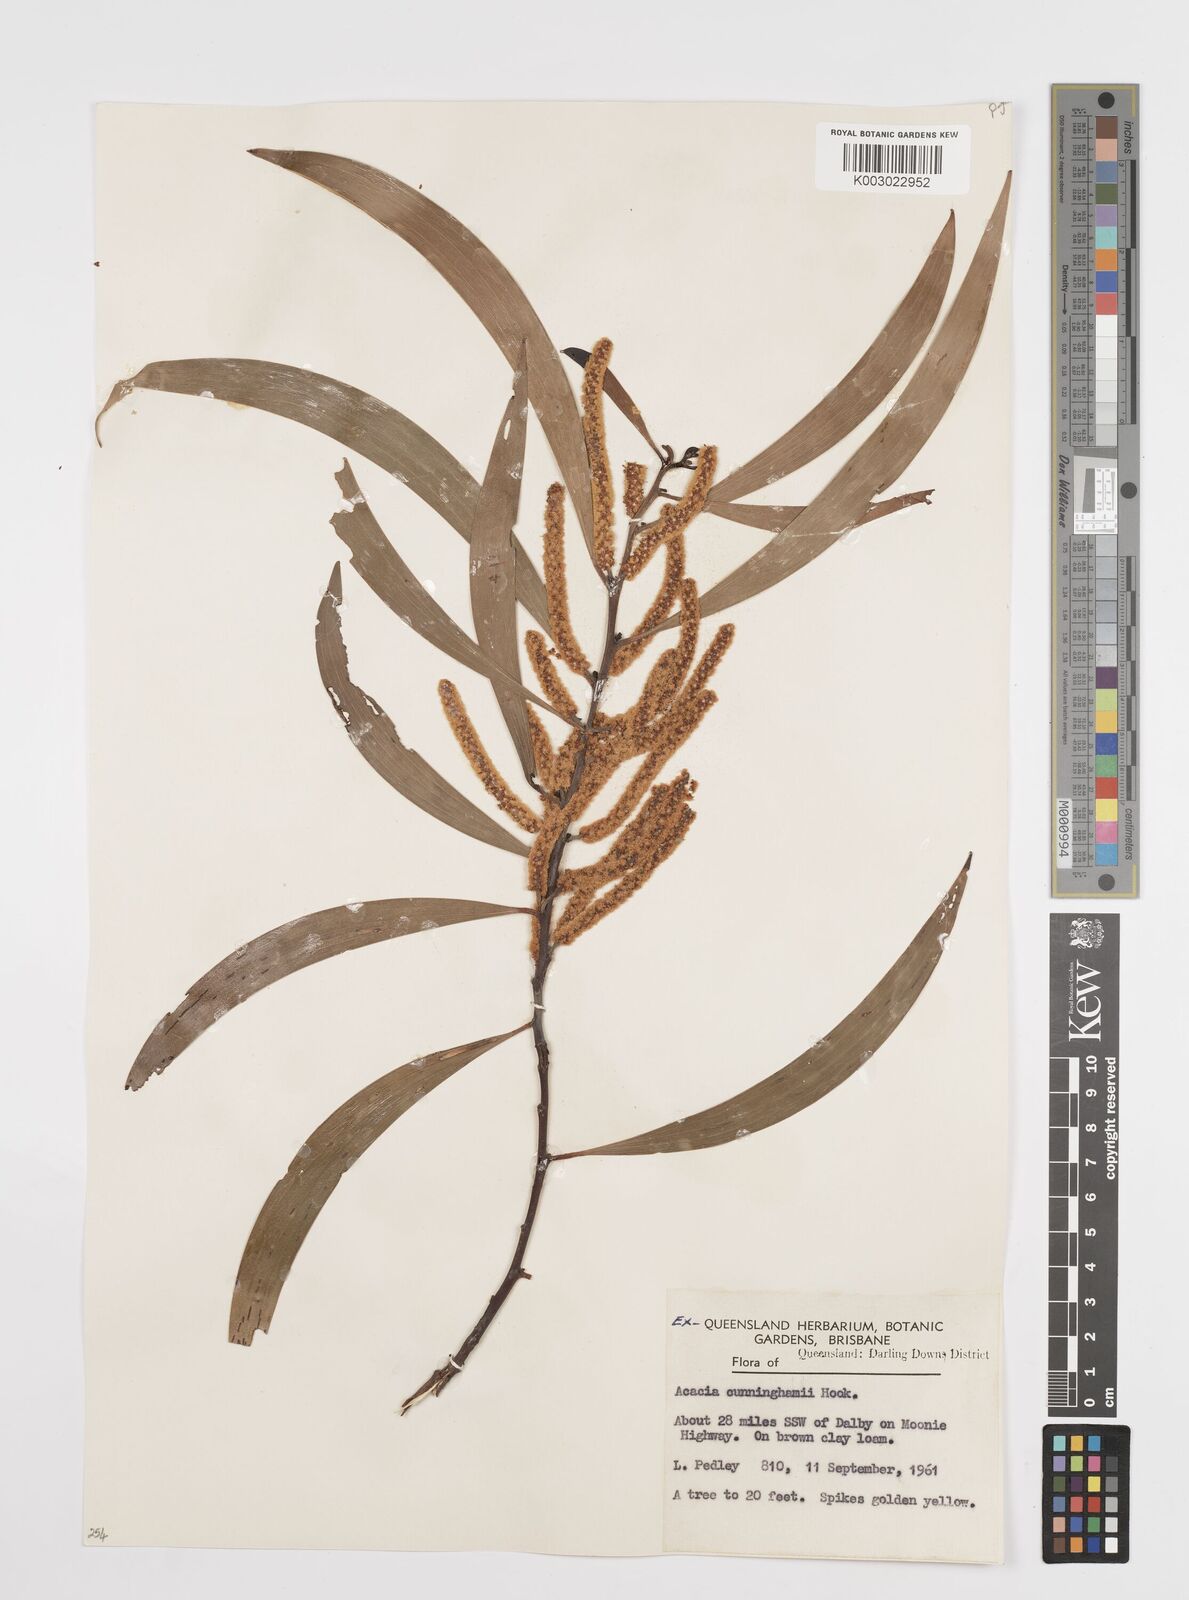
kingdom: Plantae
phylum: Tracheophyta
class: Magnoliopsida
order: Fabales
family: Fabaceae
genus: Acacia
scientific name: Acacia longispicata
